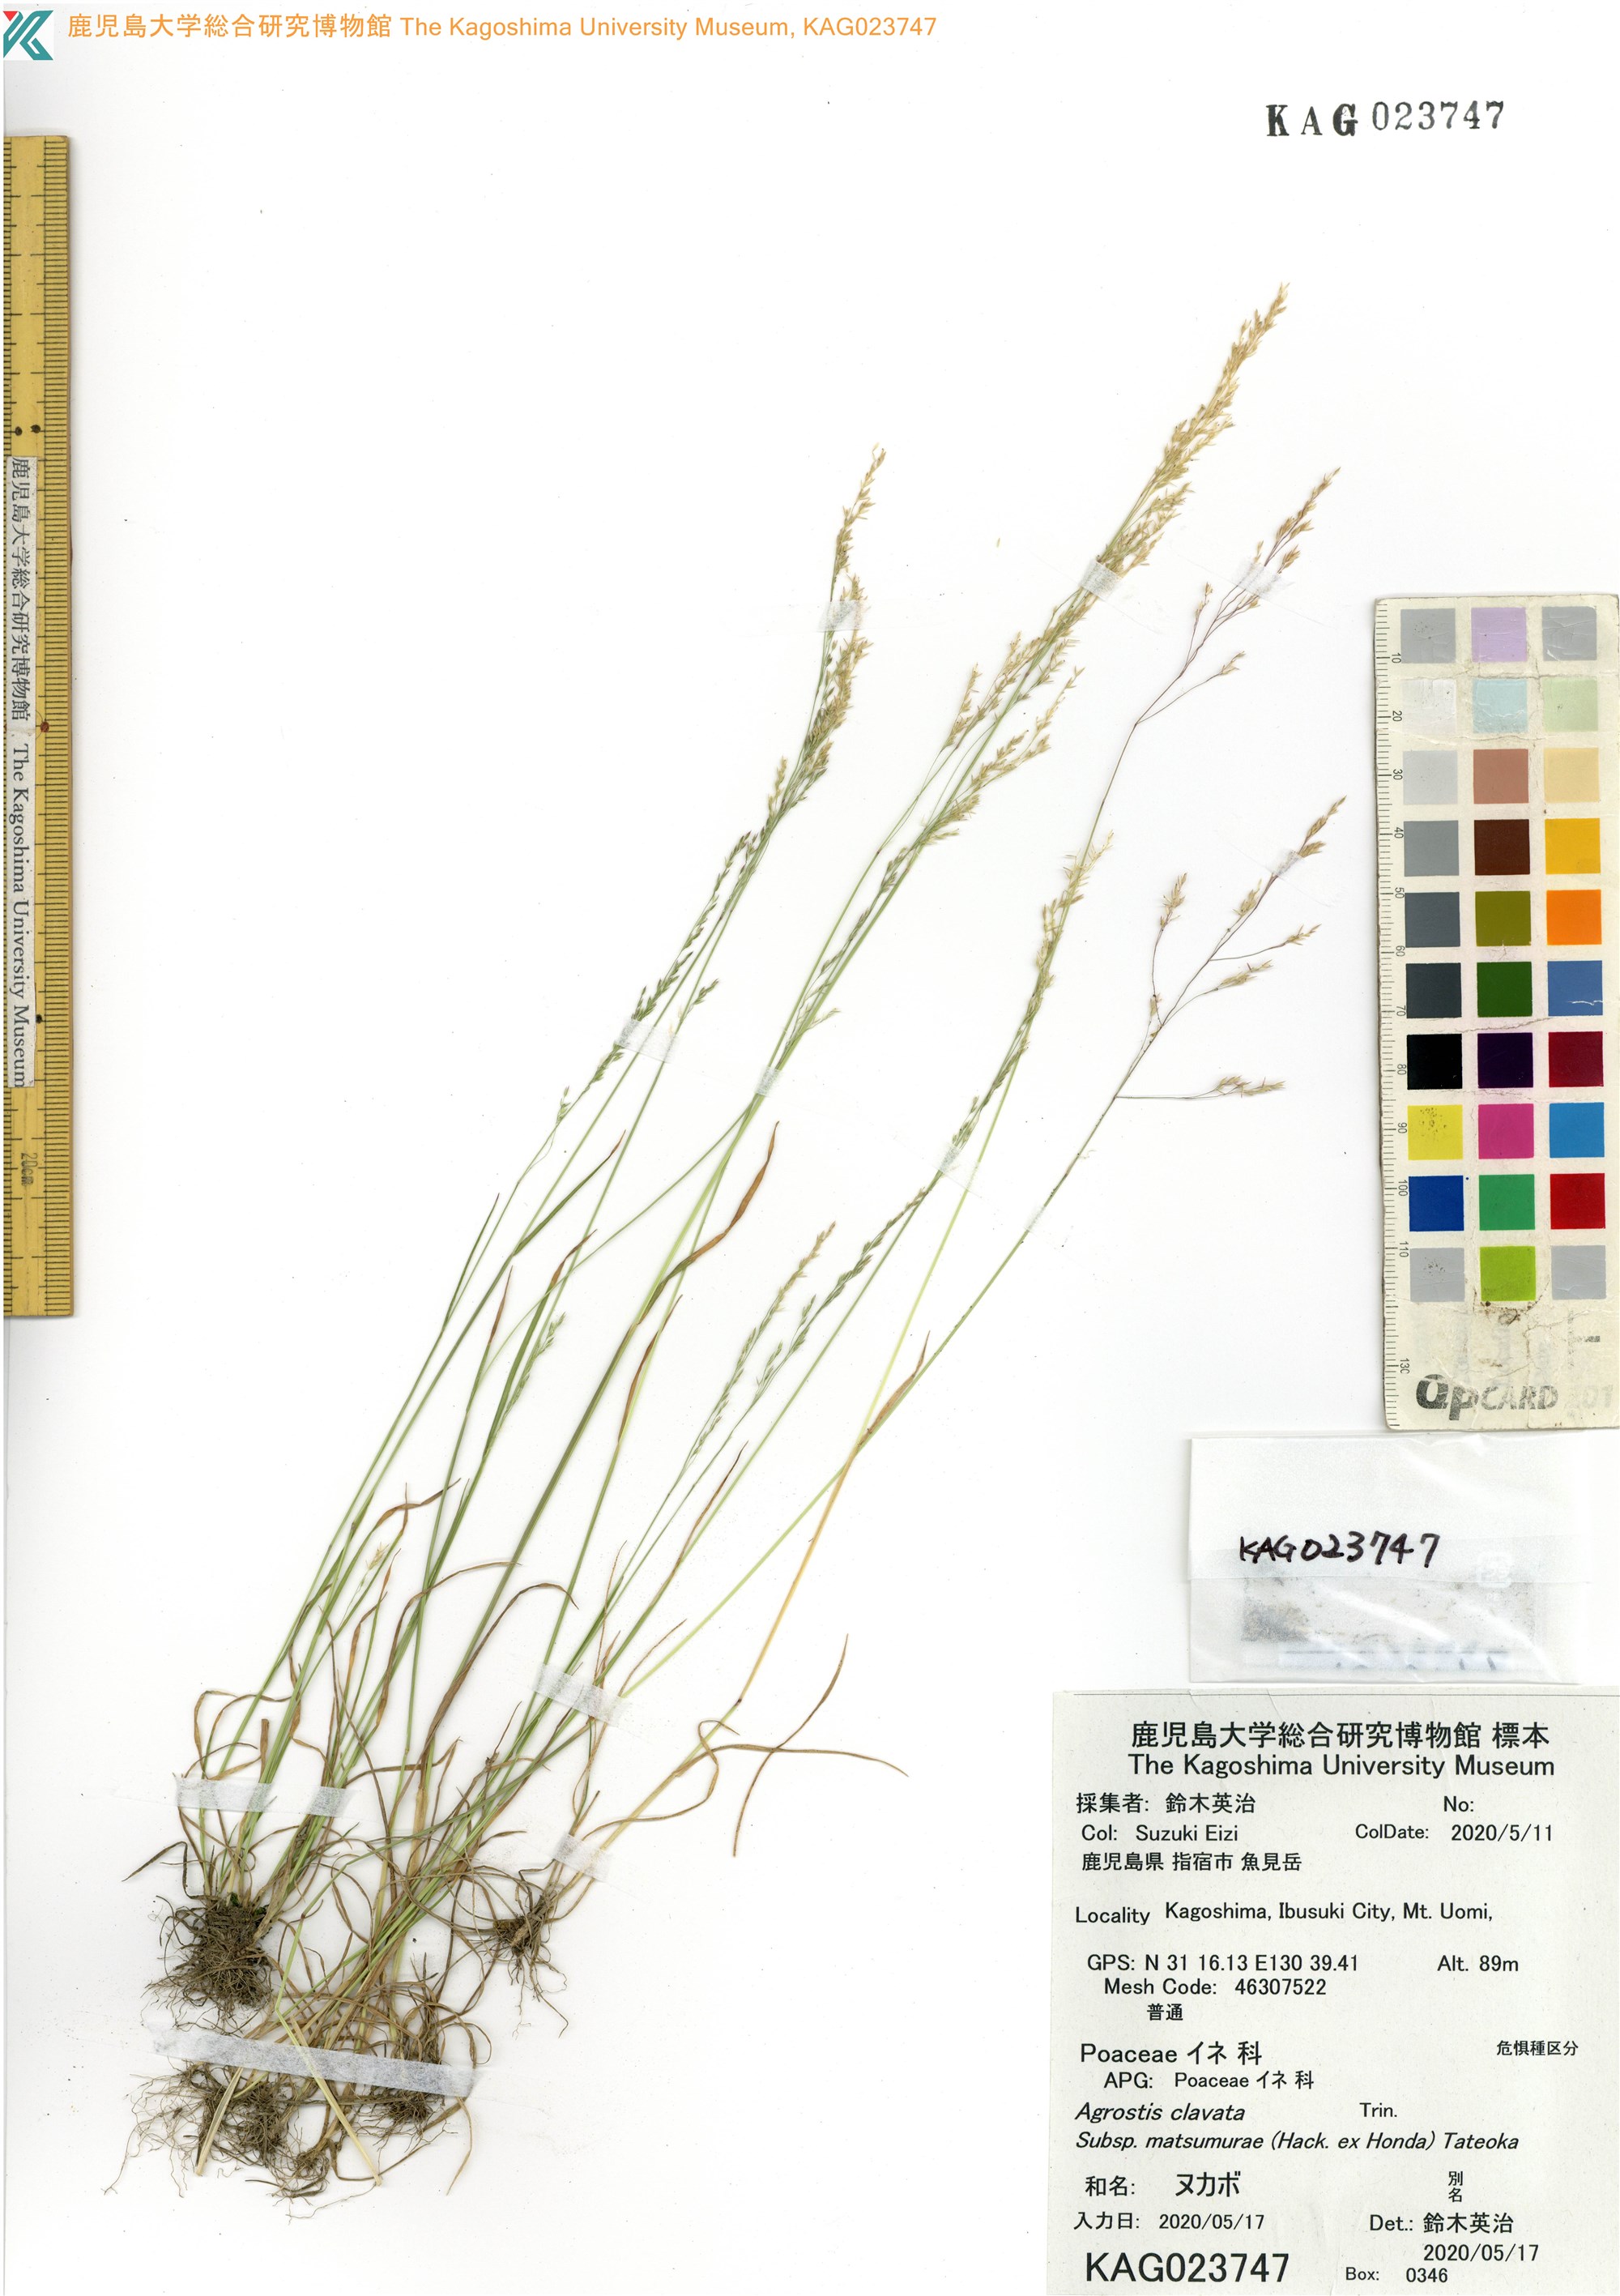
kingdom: Plantae
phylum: Tracheophyta
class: Liliopsida
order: Poales
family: Poaceae
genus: Agrostis
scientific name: Agrostis clavata
